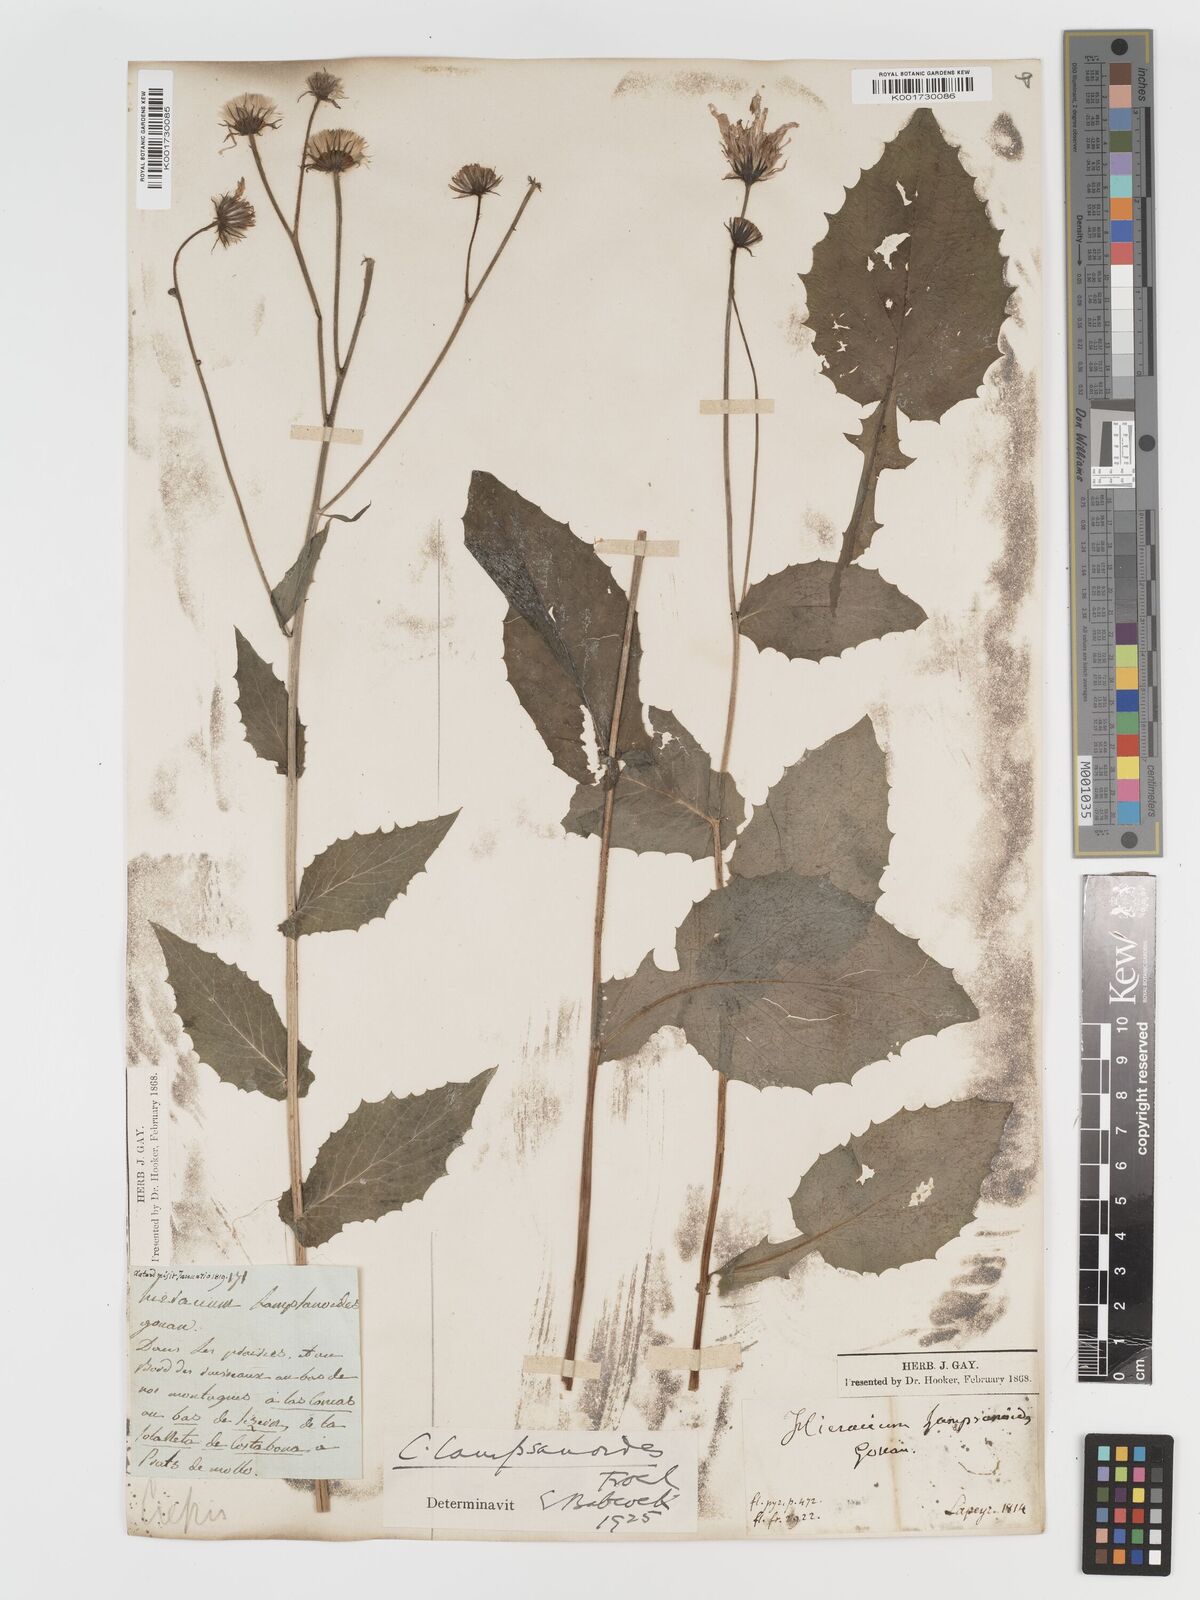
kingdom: Plantae
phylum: Tracheophyta
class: Magnoliopsida
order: Asterales
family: Asteraceae
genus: Crepis
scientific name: Crepis lampsanoides
